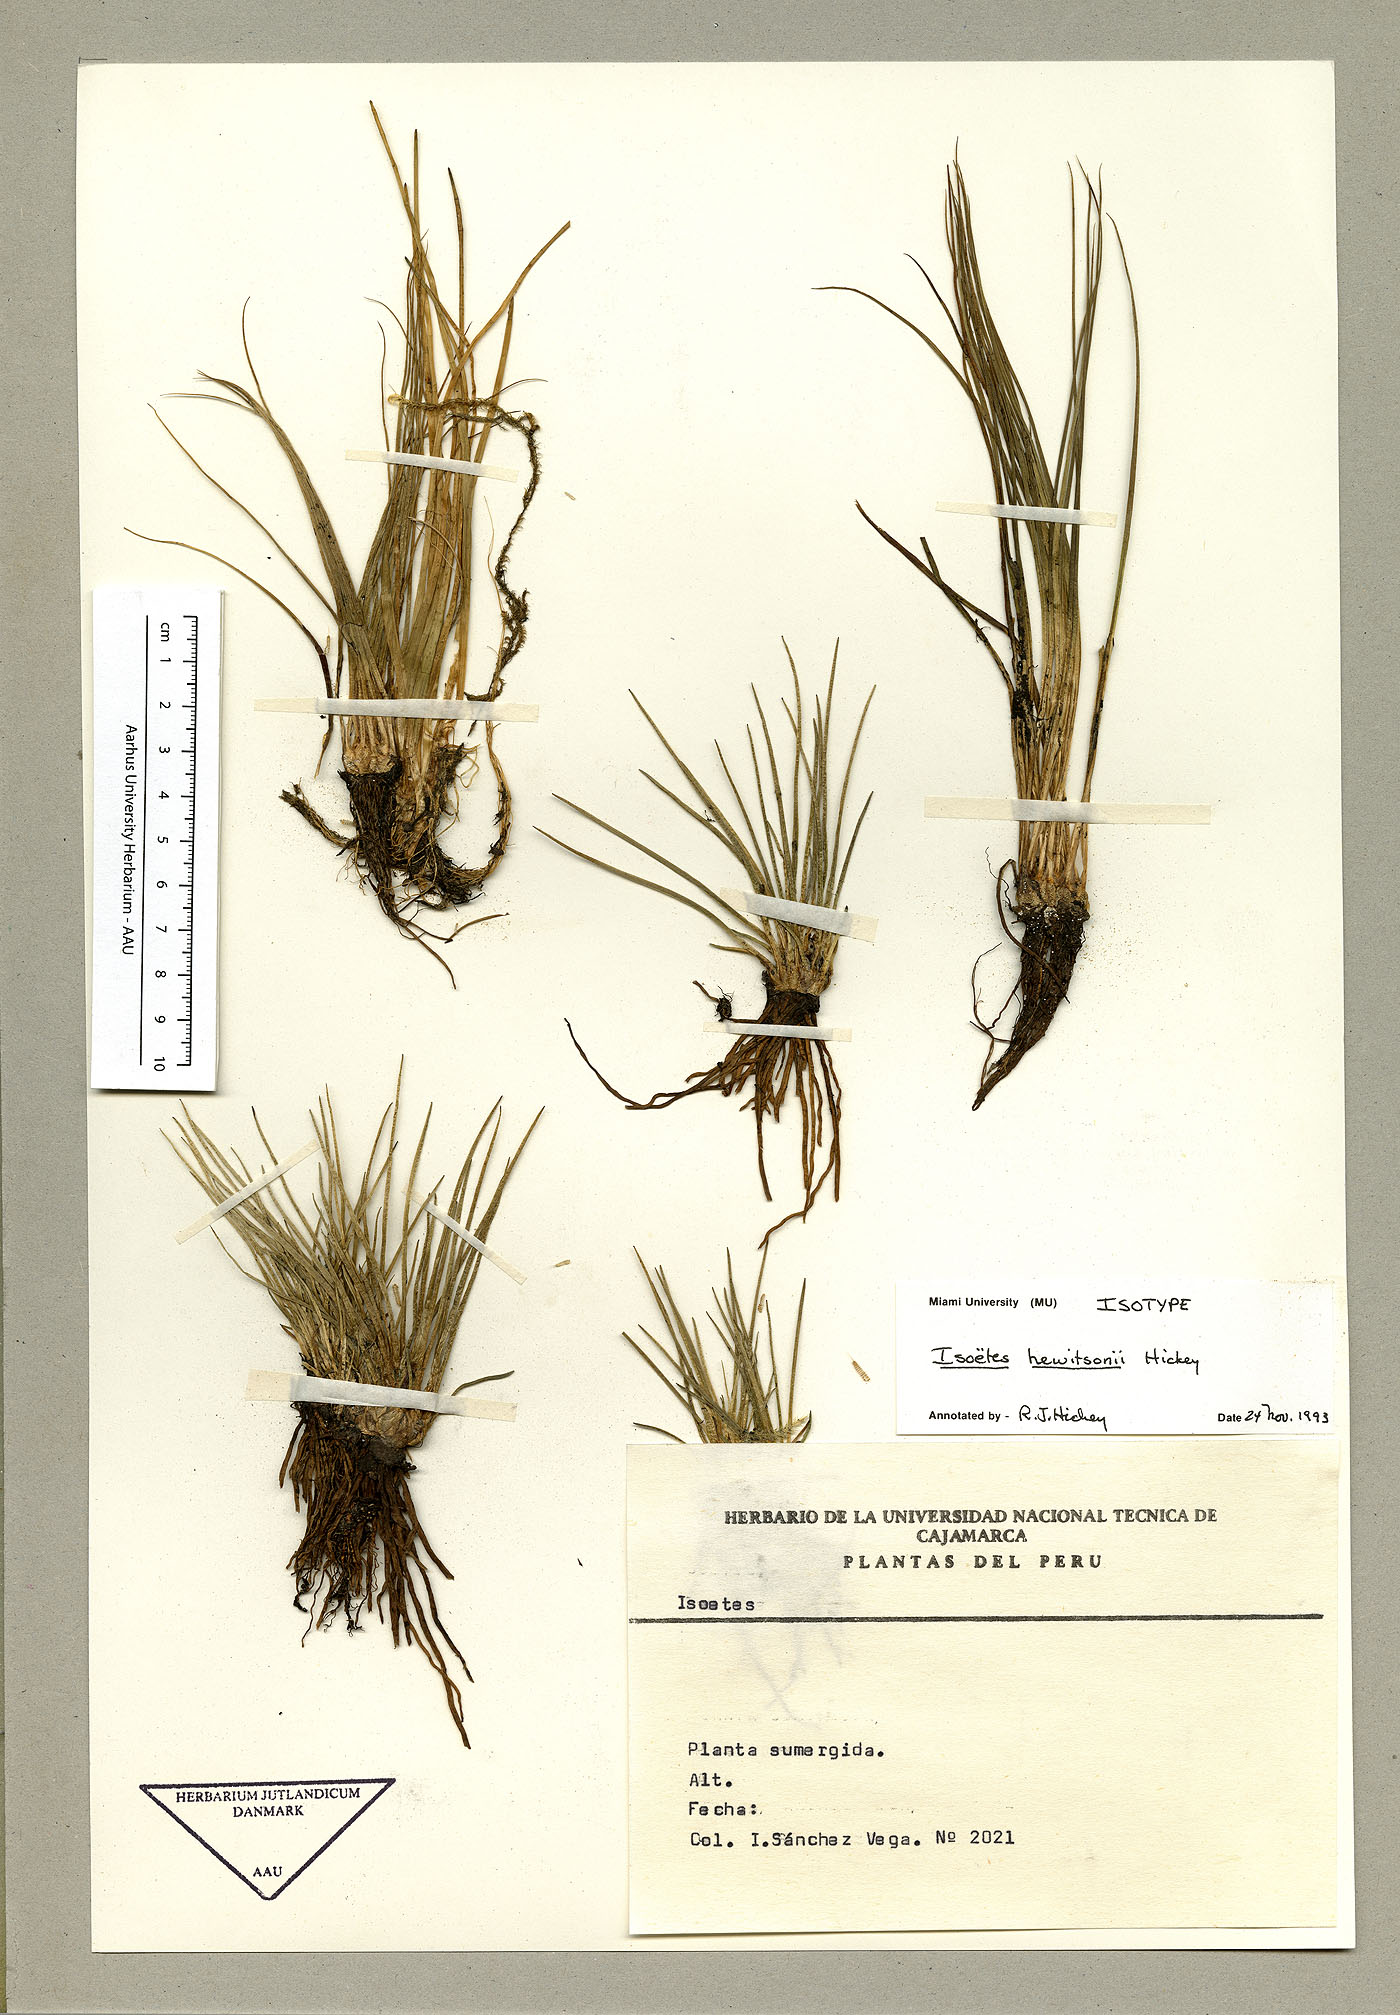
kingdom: Plantae
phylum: Tracheophyta
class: Lycopodiopsida
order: Isoetales
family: Isoetaceae
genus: Isoetes
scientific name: Isoetes hewitsonii
